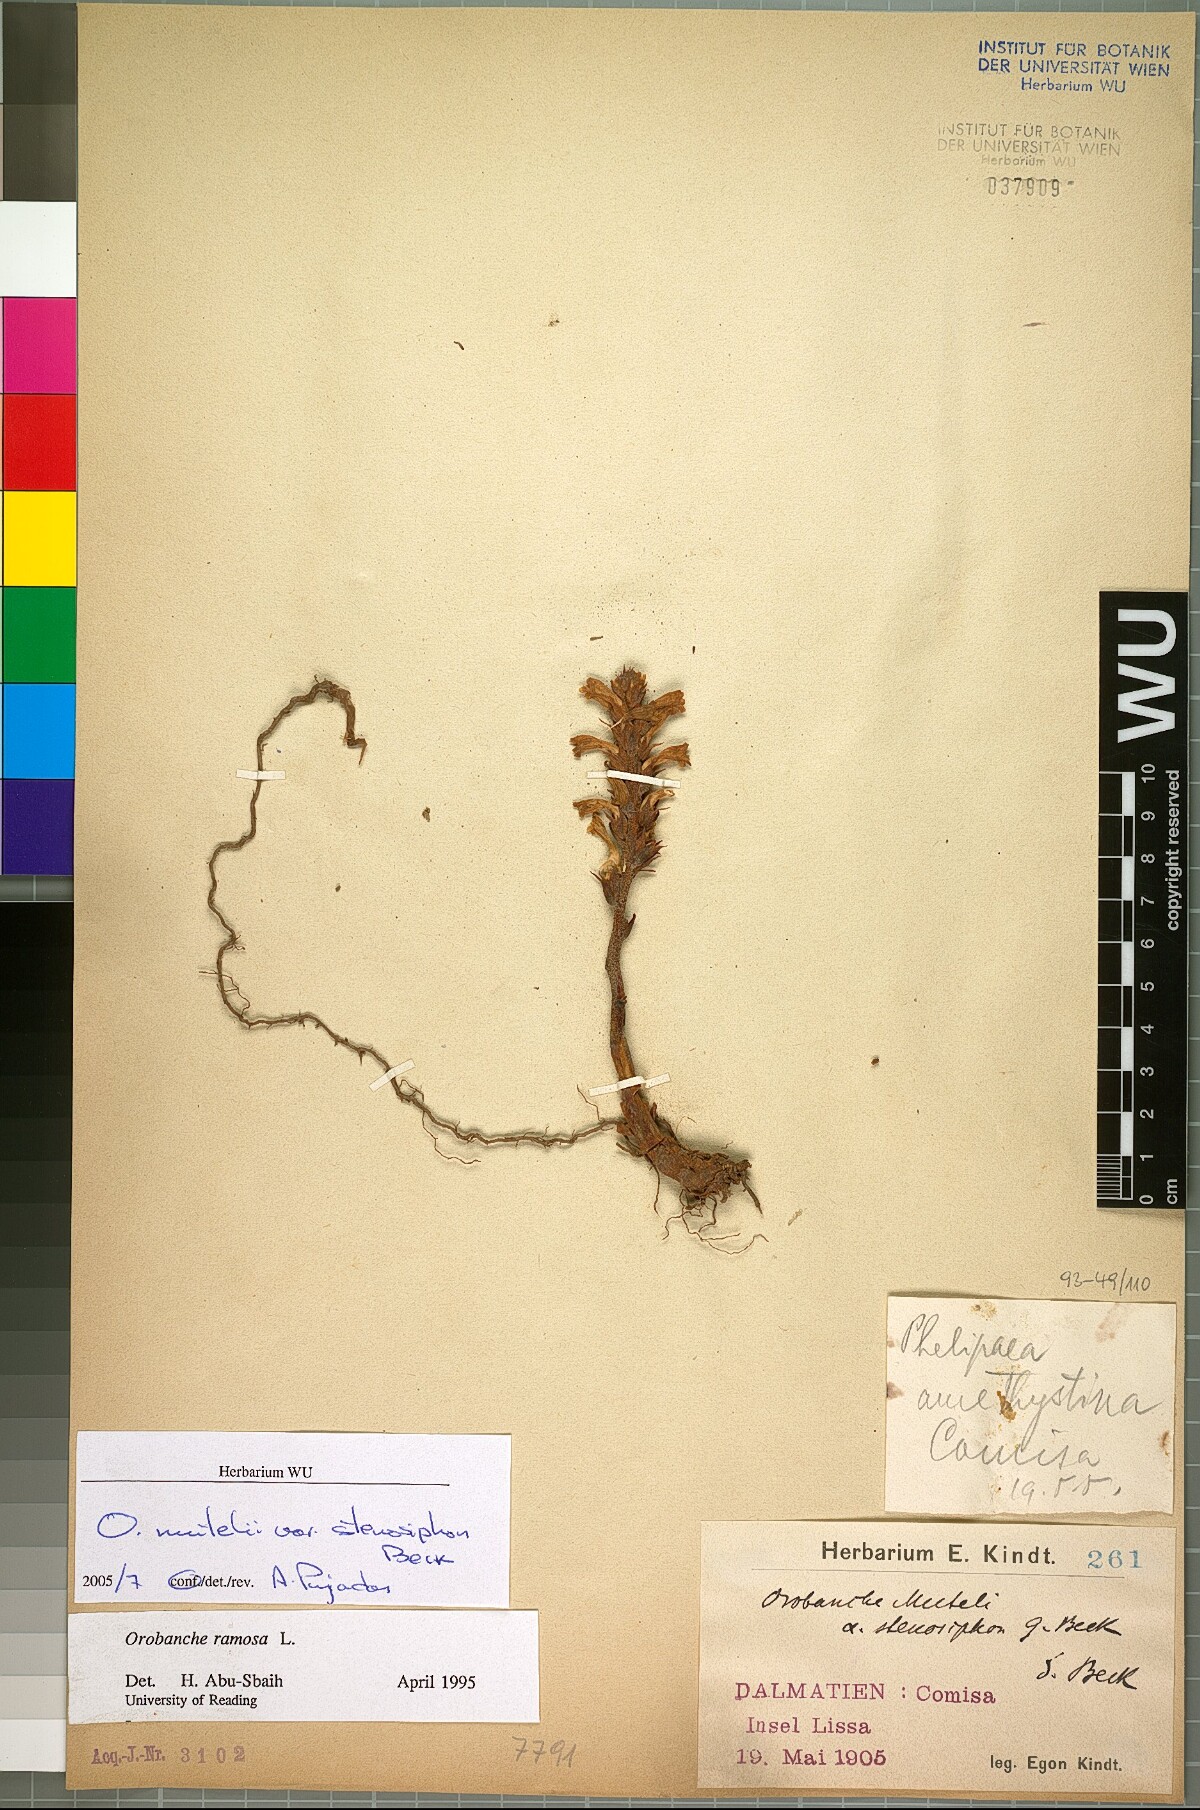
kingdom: Plantae
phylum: Tracheophyta
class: Magnoliopsida
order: Lamiales
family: Orobanchaceae
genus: Phelipanche
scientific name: Phelipanche pseudorosmarina
